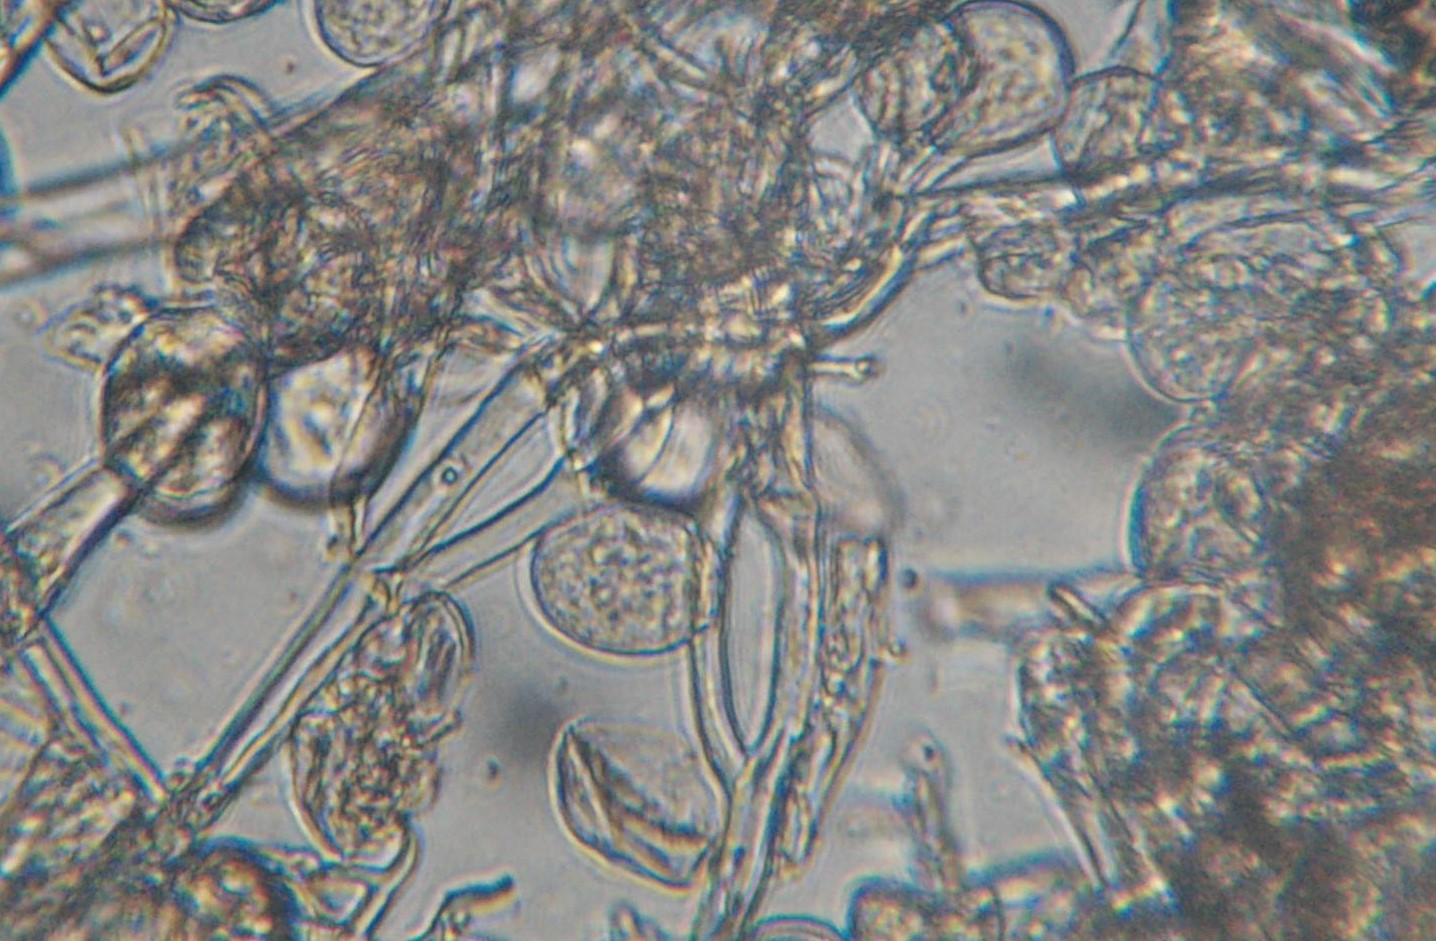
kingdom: Chromista
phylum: Oomycota
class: Peronosporea
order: Peronosporales
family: Peronosporaceae
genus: Peronospora
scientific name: Peronospora bulbocapni
